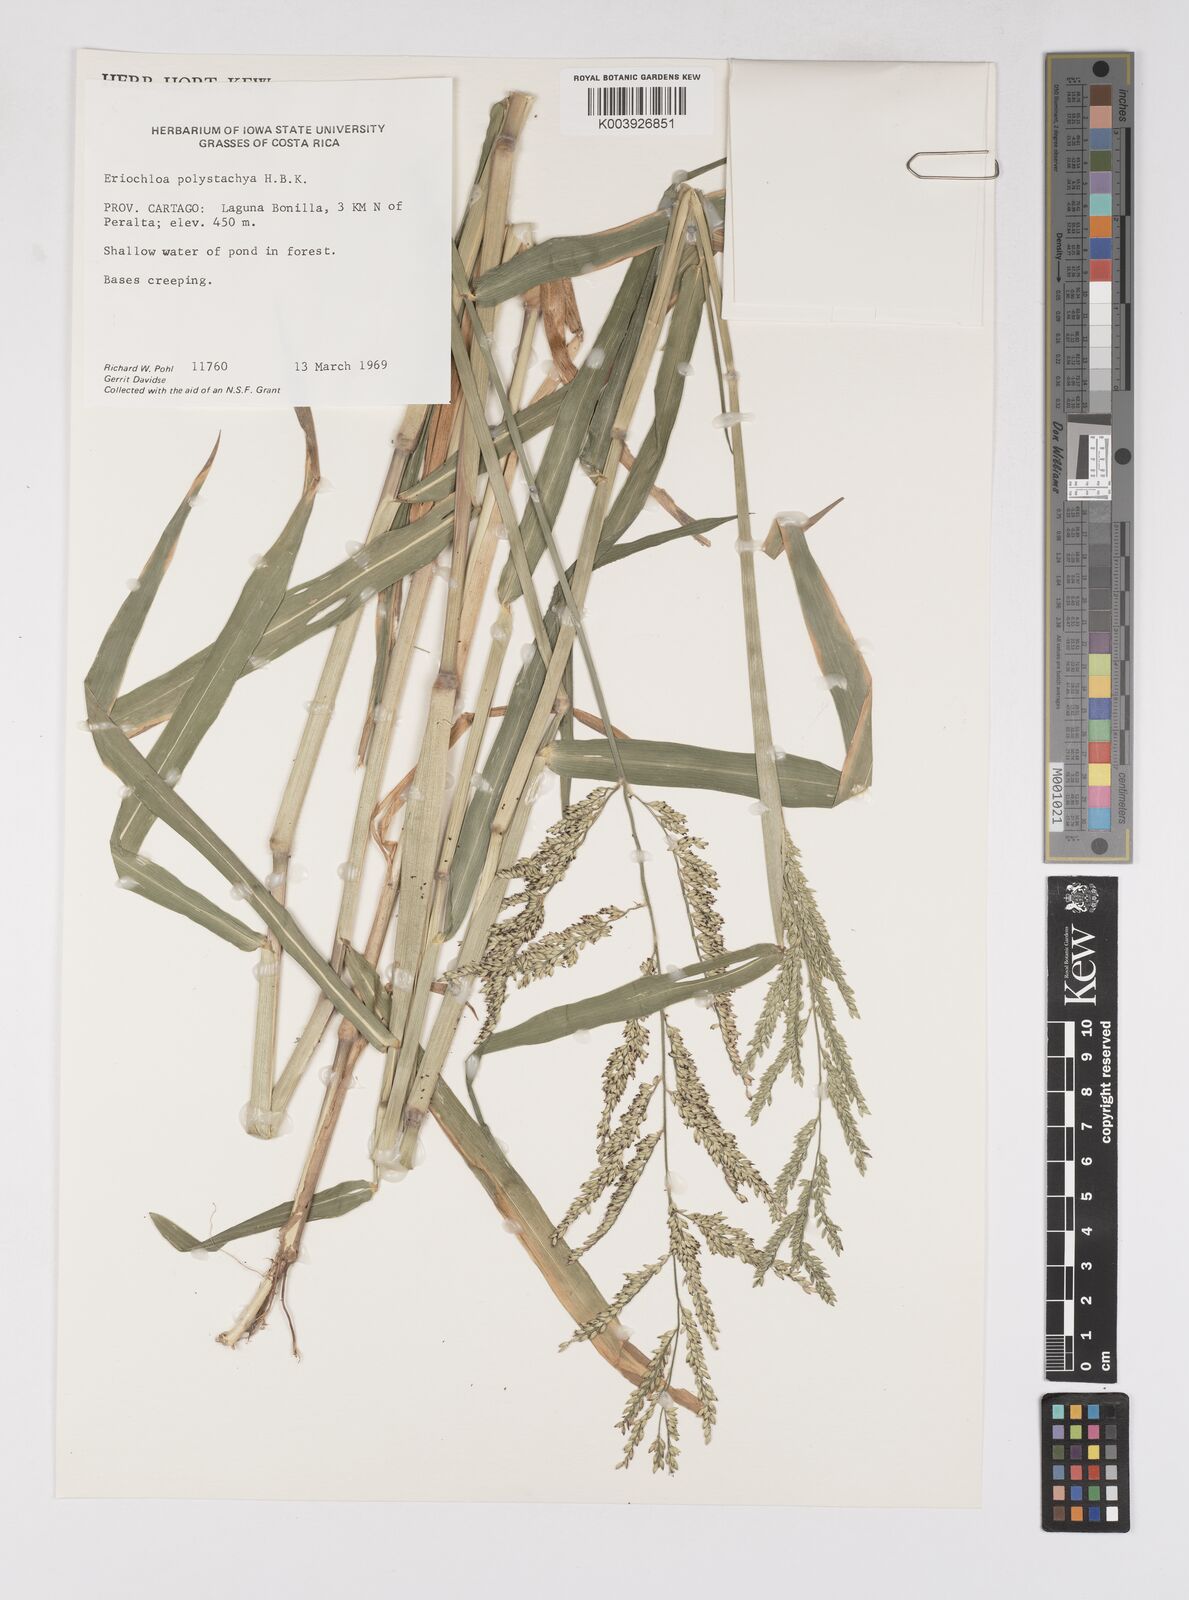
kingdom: Plantae
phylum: Tracheophyta
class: Liliopsida
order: Poales
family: Poaceae
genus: Urochloa
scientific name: Urochloa polystachya
